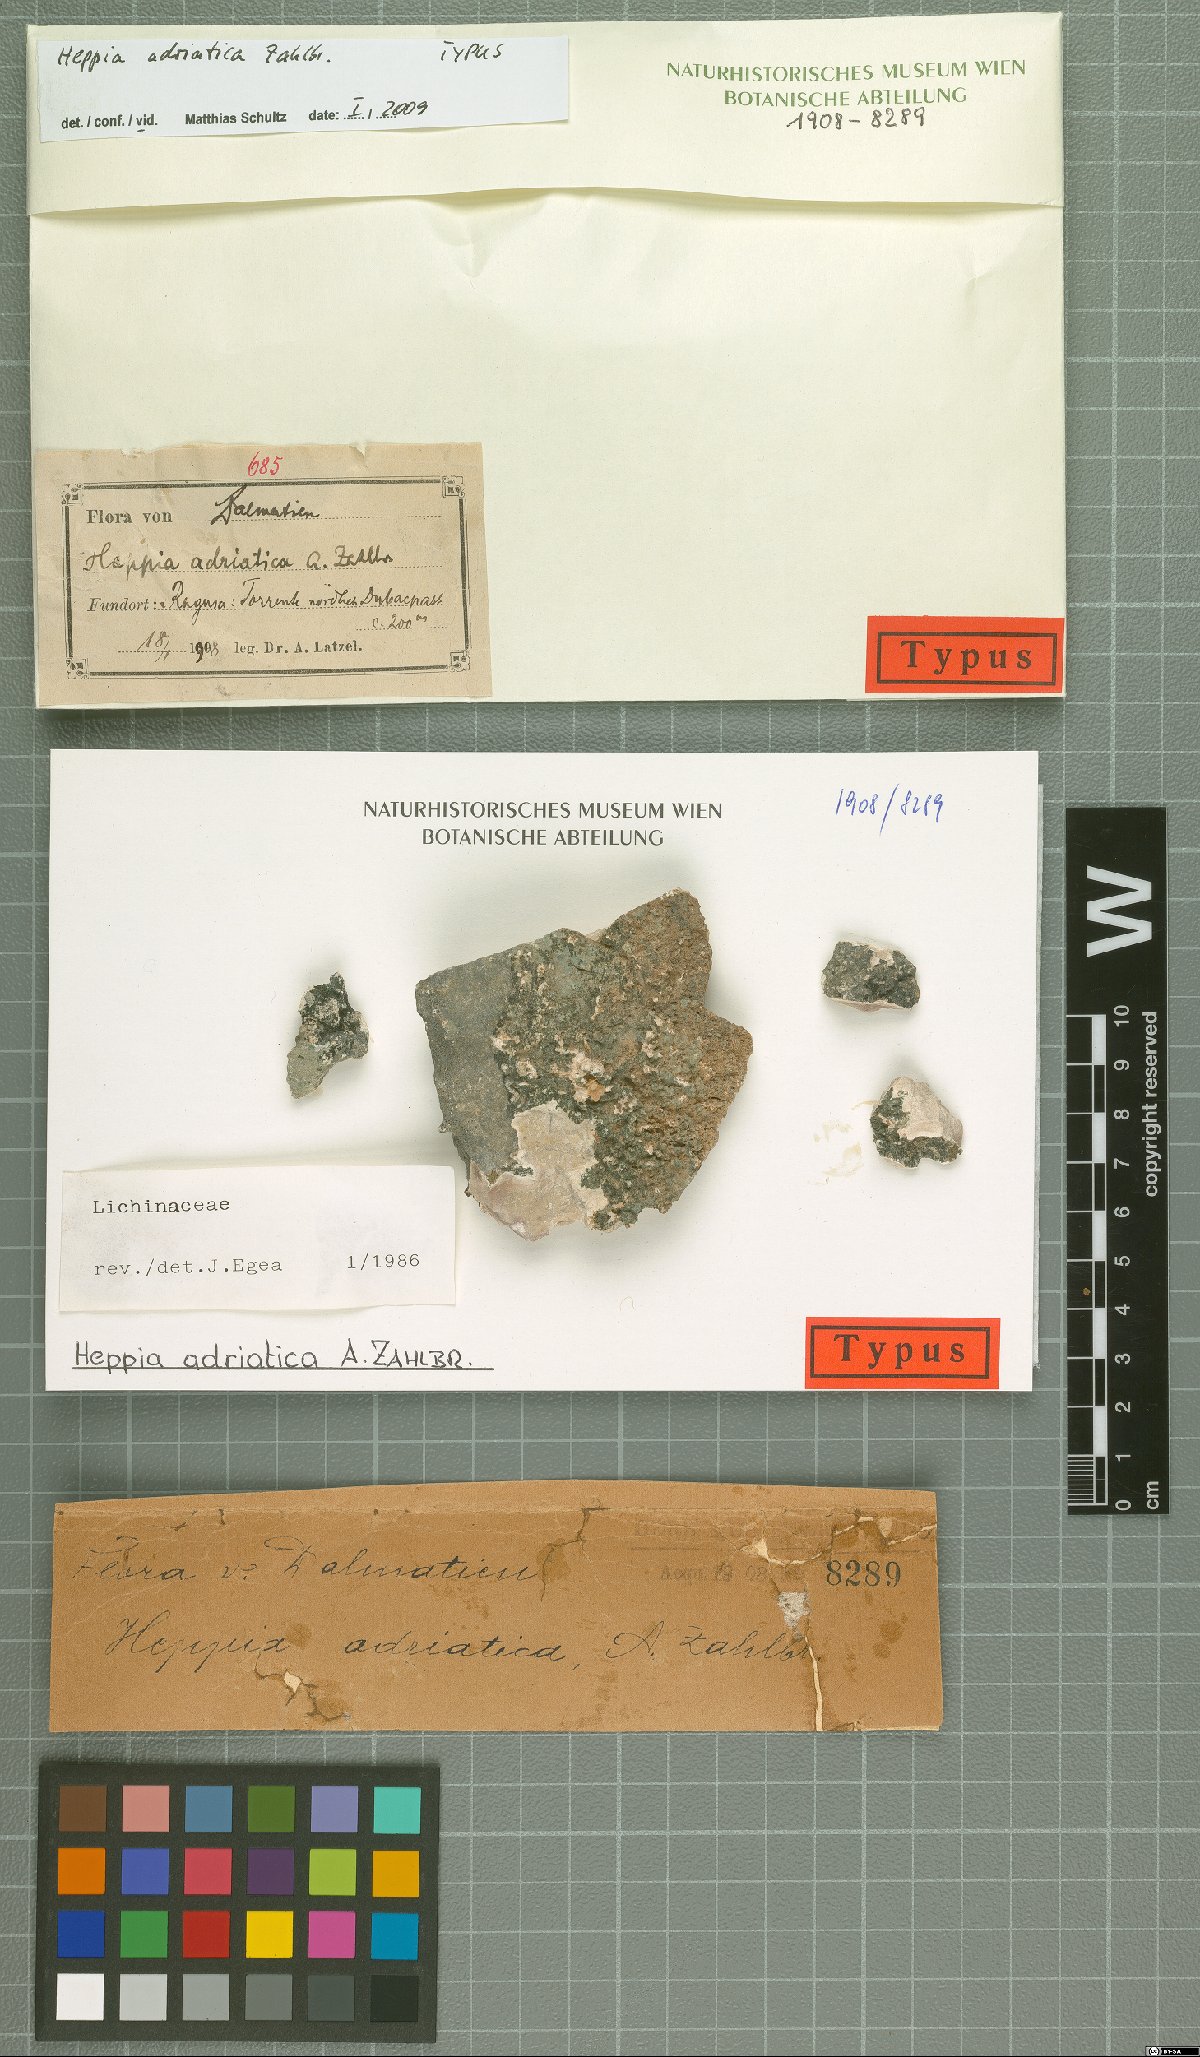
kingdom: Fungi
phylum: Ascomycota
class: Lichinomycetes
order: Lichinales
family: Lichinaceae
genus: Heppia
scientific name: Heppia adriatica
